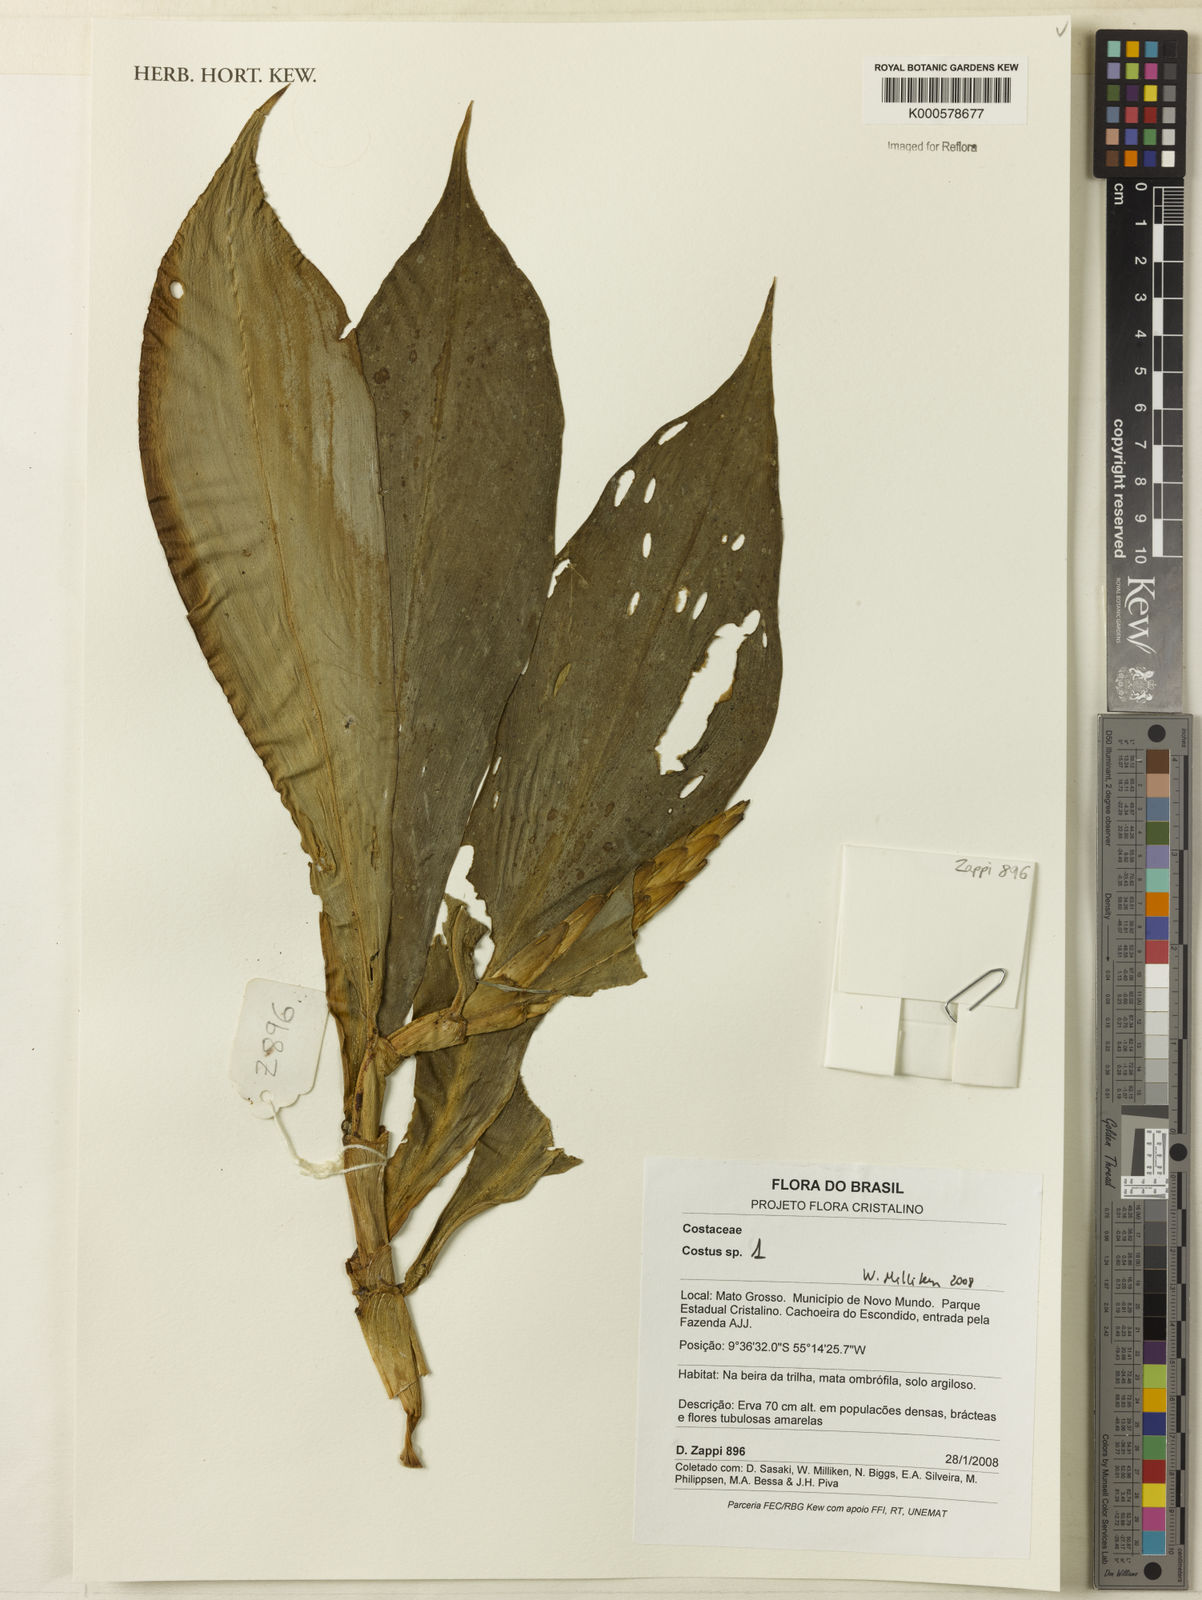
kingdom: Plantae
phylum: Tracheophyta
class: Liliopsida
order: Zingiberales
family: Costaceae
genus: Chamaecostus
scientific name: Chamaecostus fusiformis
